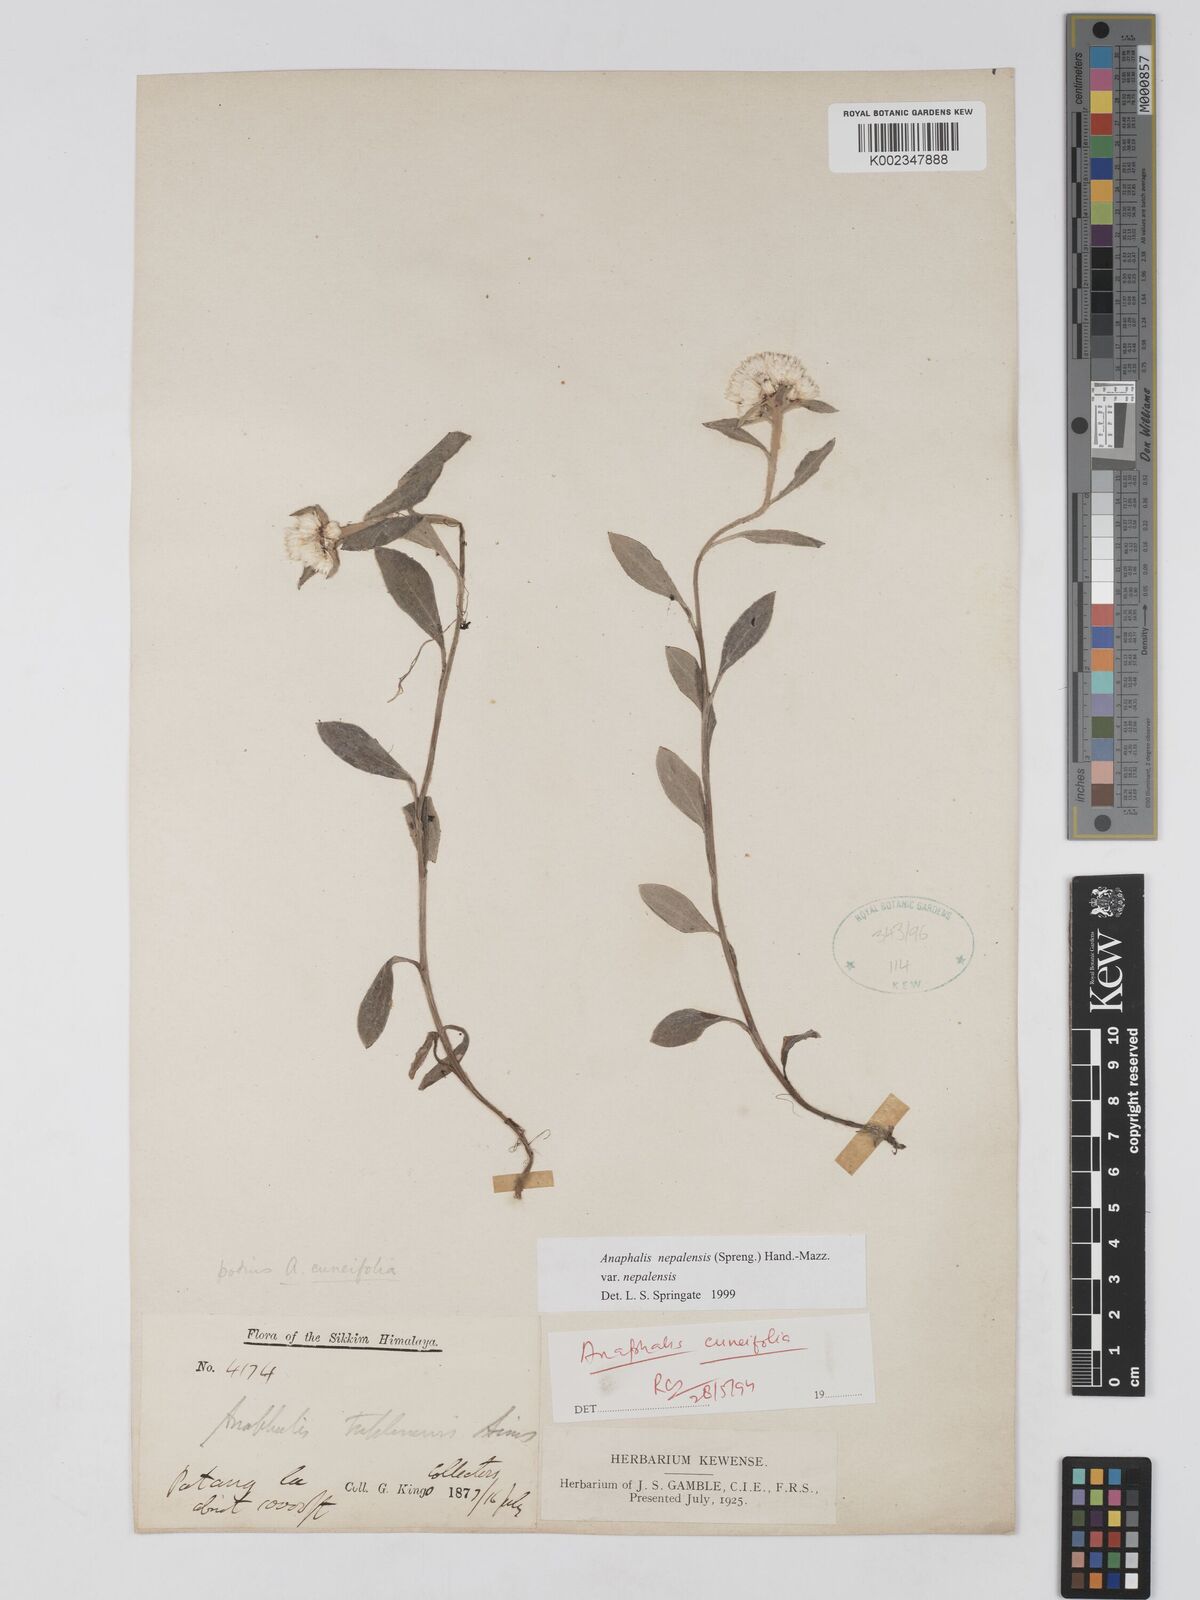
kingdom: Plantae
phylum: Tracheophyta
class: Magnoliopsida
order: Asterales
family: Asteraceae
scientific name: Asteraceae
